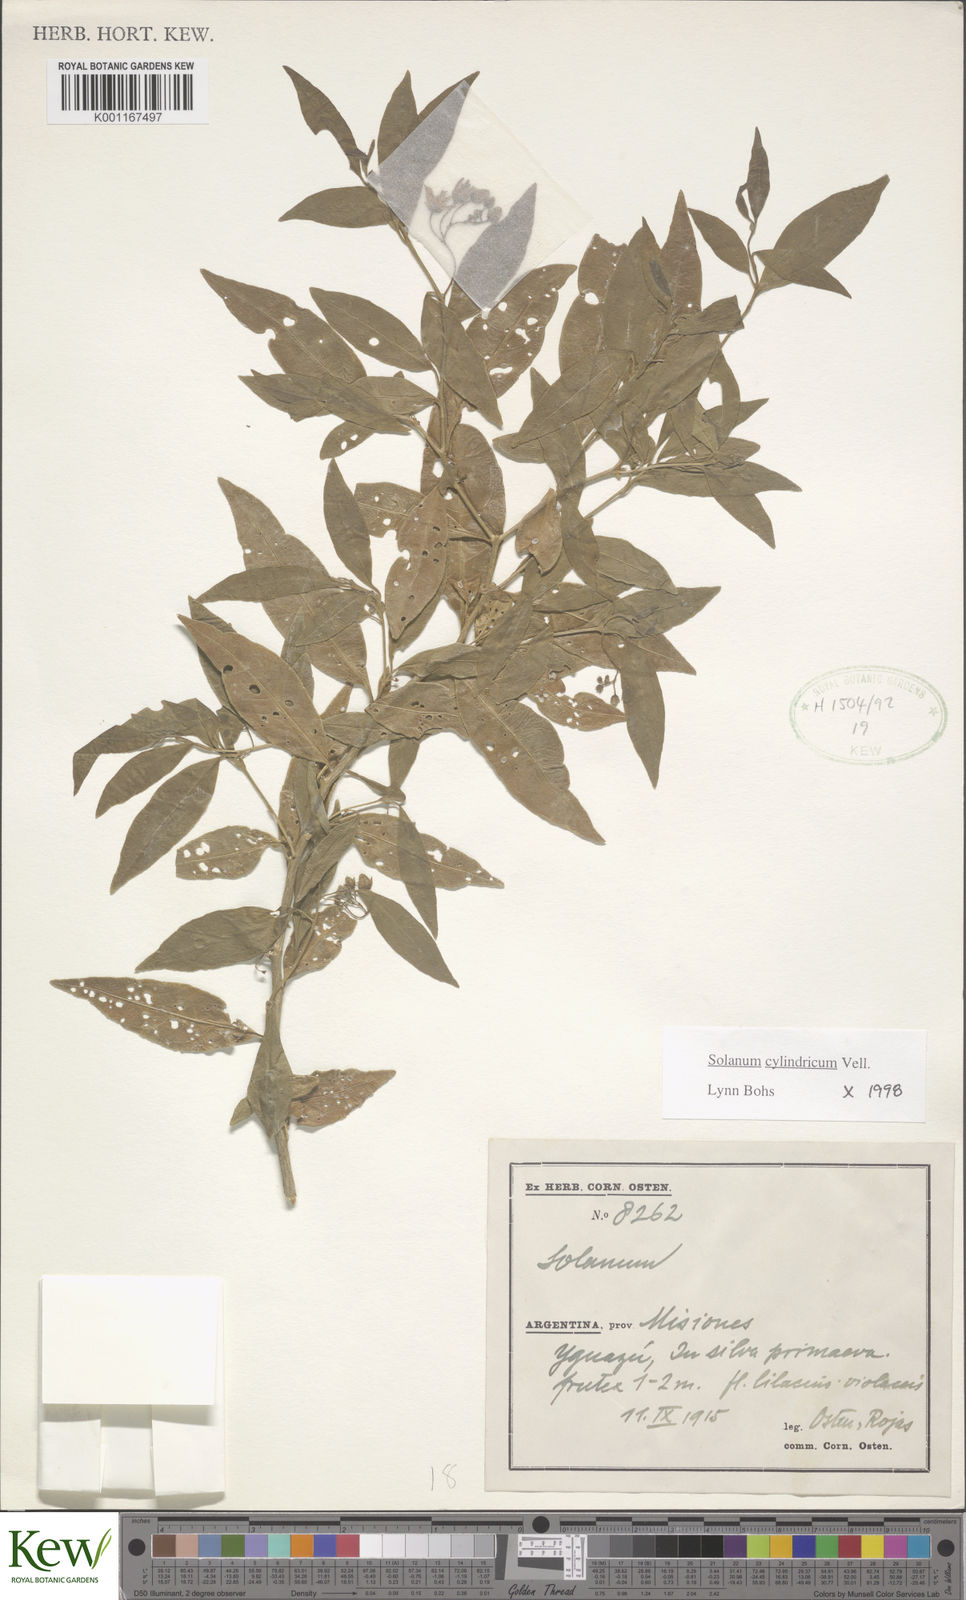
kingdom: Plantae
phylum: Tracheophyta
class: Magnoliopsida
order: Solanales
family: Solanaceae
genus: Solanum
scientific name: Solanum cylindricum
